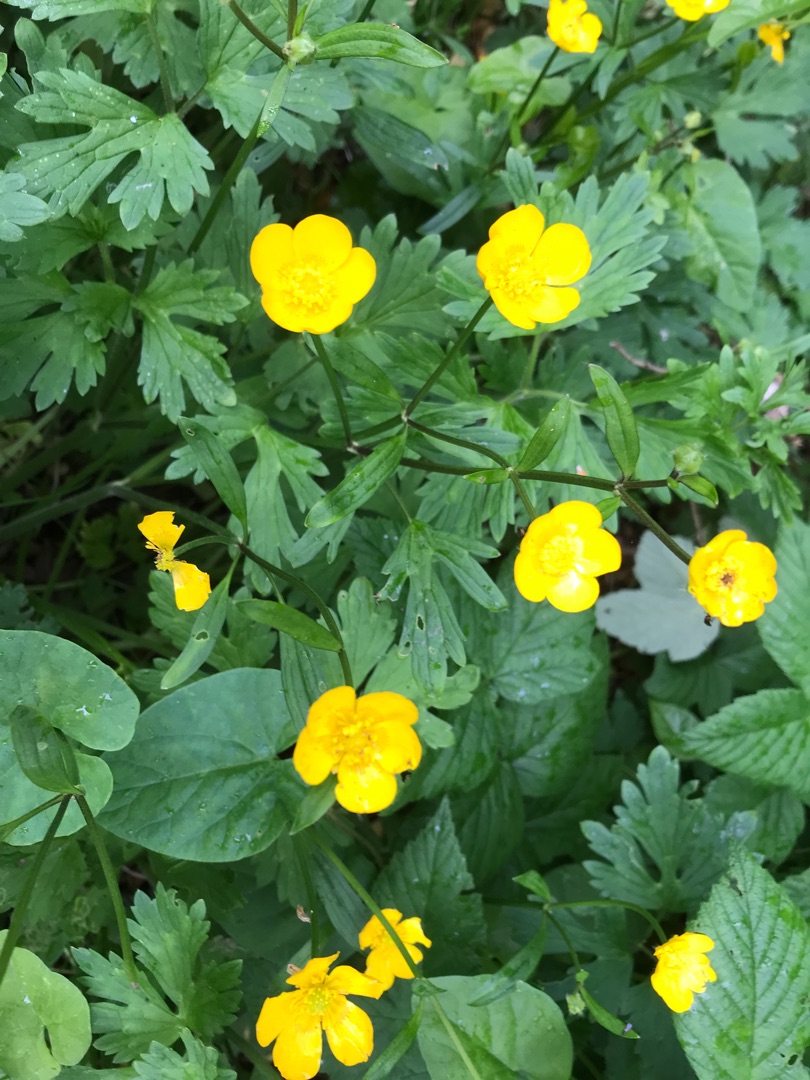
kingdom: Plantae
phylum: Tracheophyta
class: Magnoliopsida
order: Ranunculales
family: Ranunculaceae
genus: Ranunculus
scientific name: Ranunculus repens
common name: Lav ranunkel
